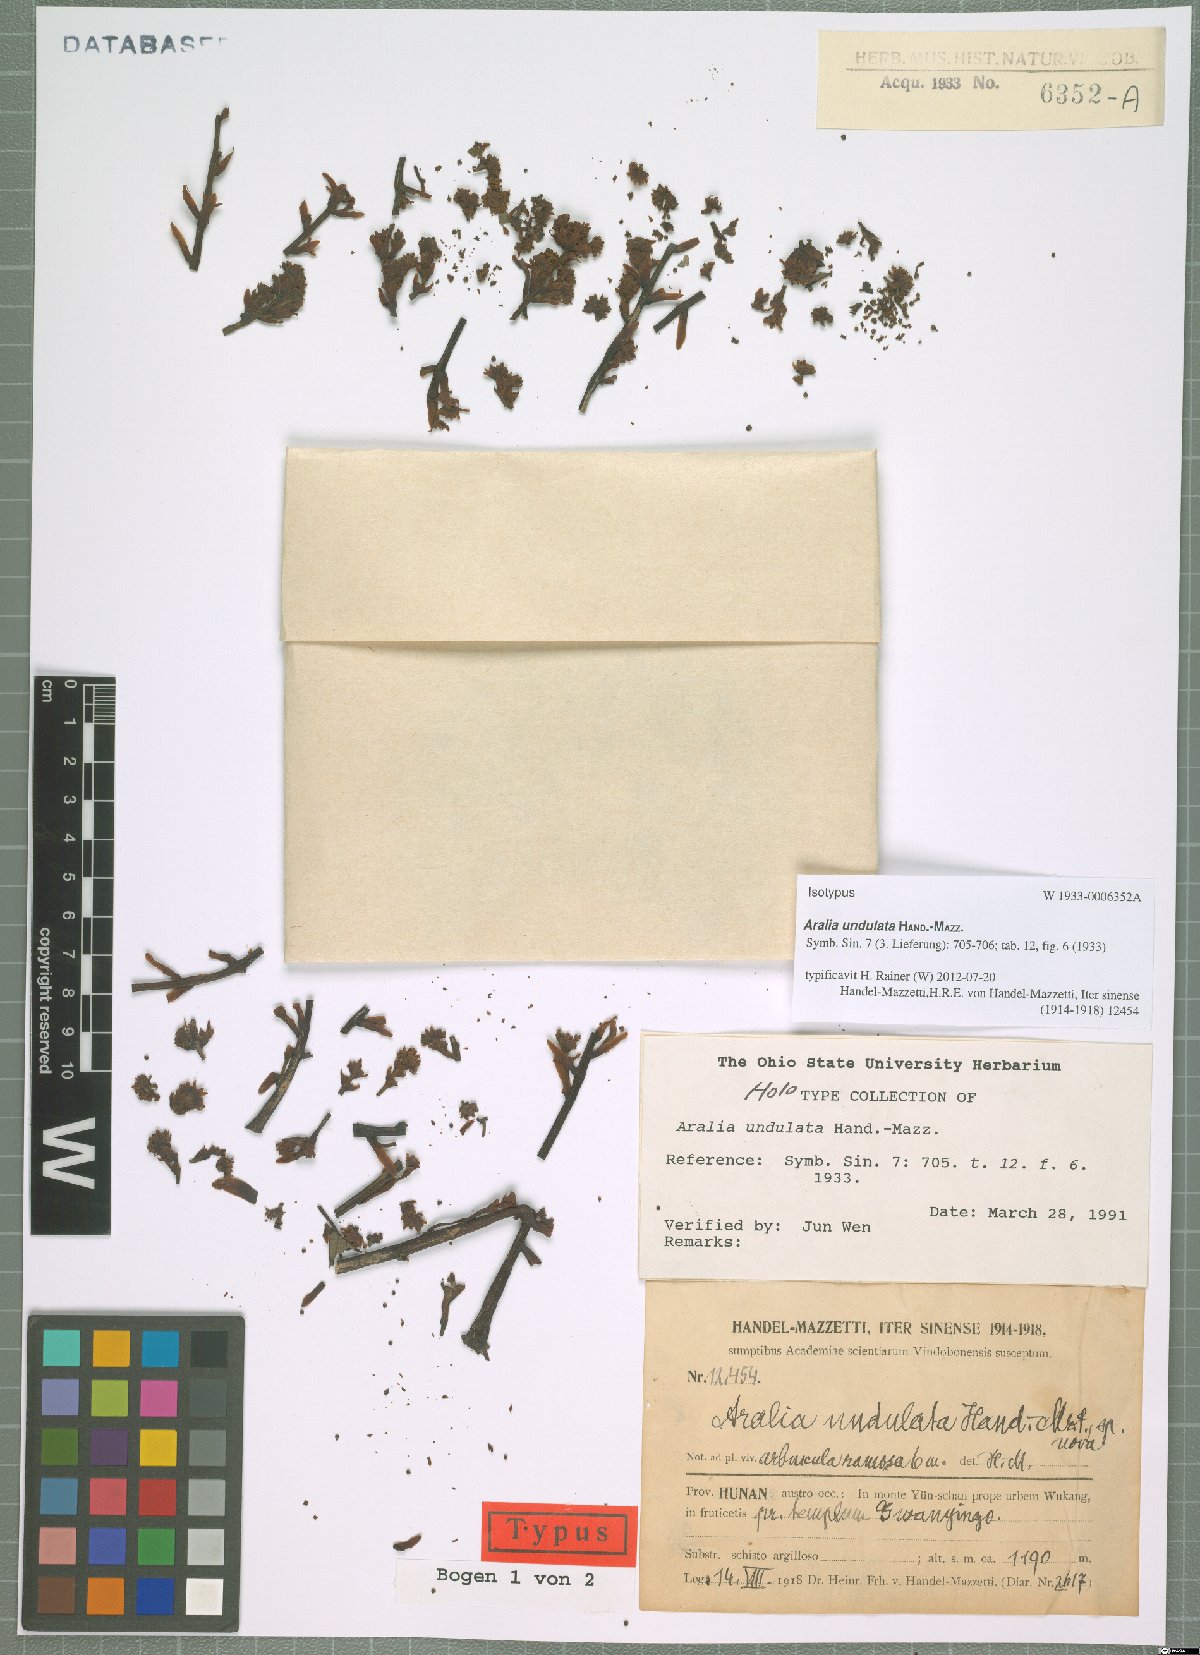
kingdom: Plantae
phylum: Tracheophyta
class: Magnoliopsida
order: Apiales
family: Araliaceae
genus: Aralia
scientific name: Aralia undulata
